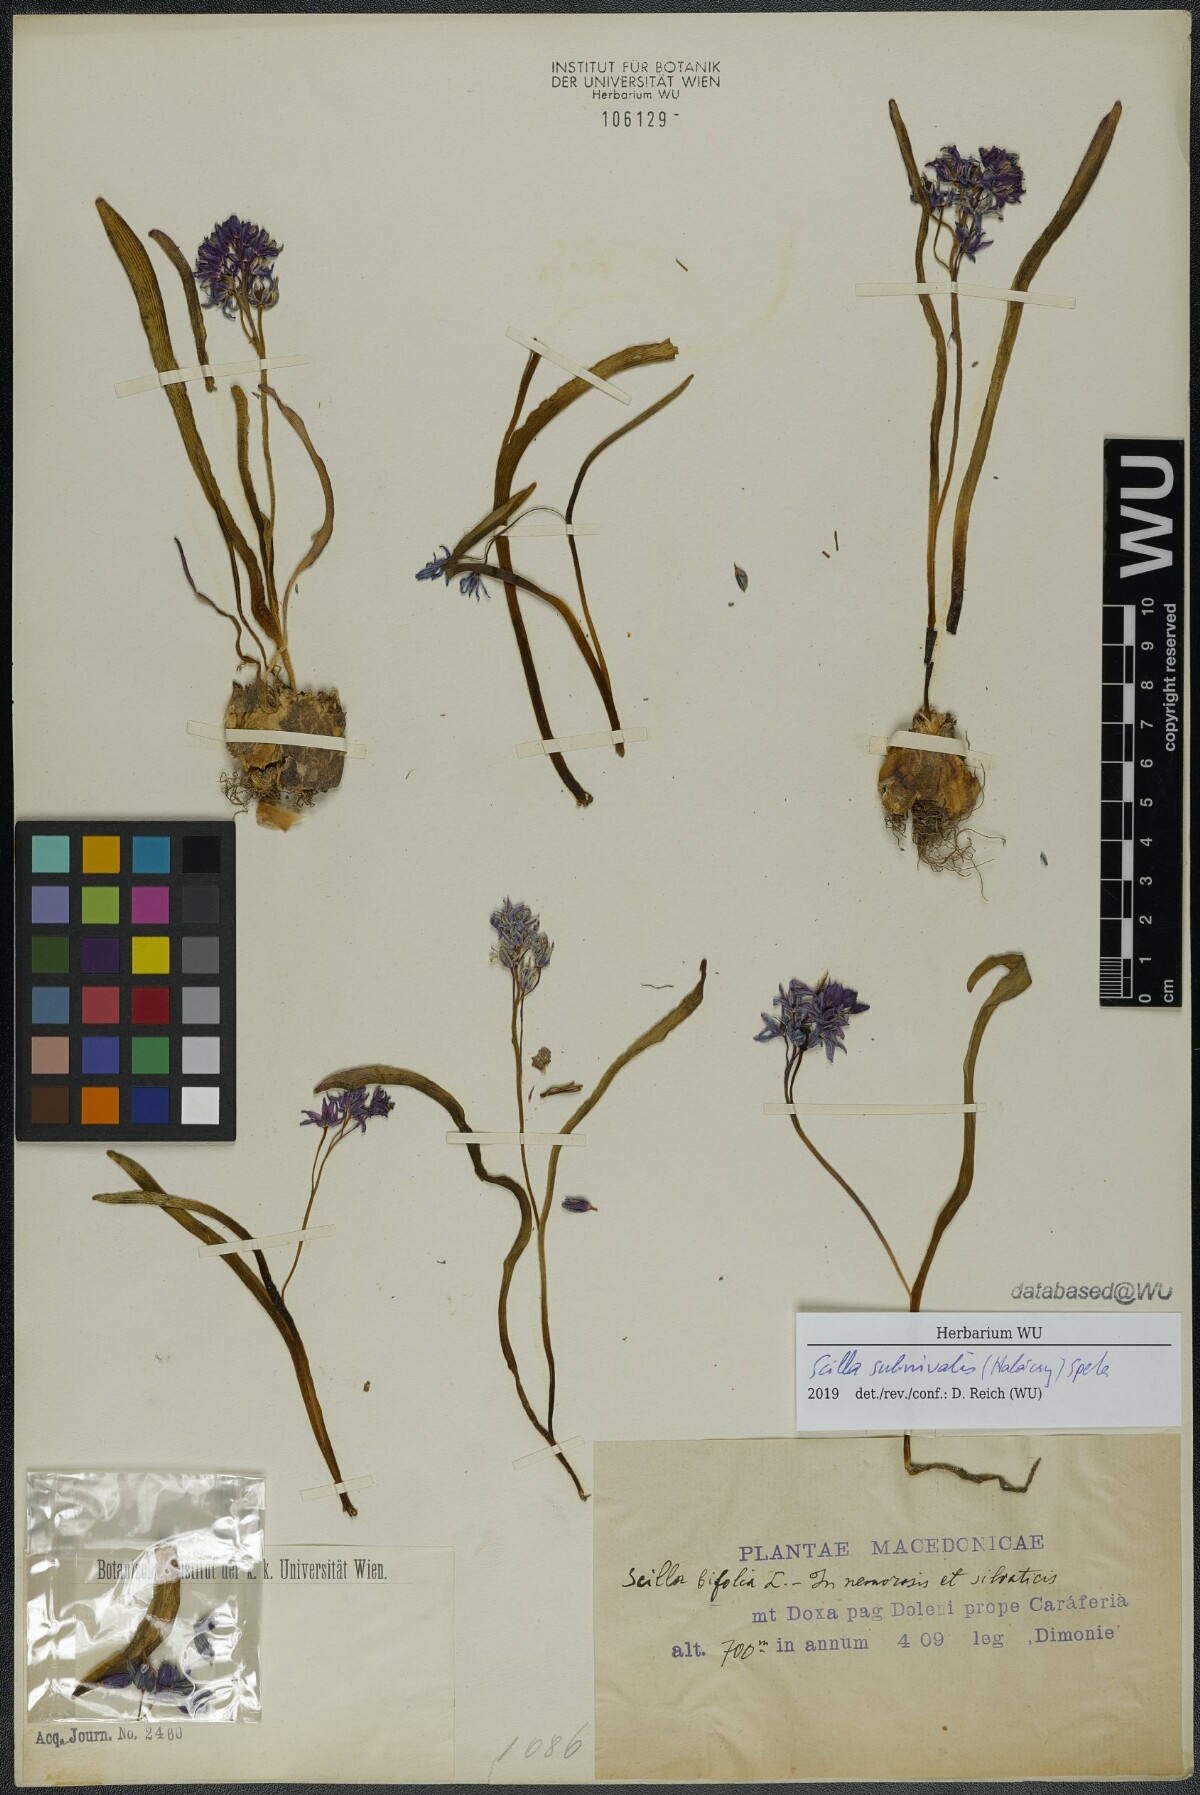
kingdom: Plantae
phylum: Tracheophyta
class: Liliopsida
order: Asparagales
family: Asparagaceae
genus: Scilla
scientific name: Scilla subnivalis
